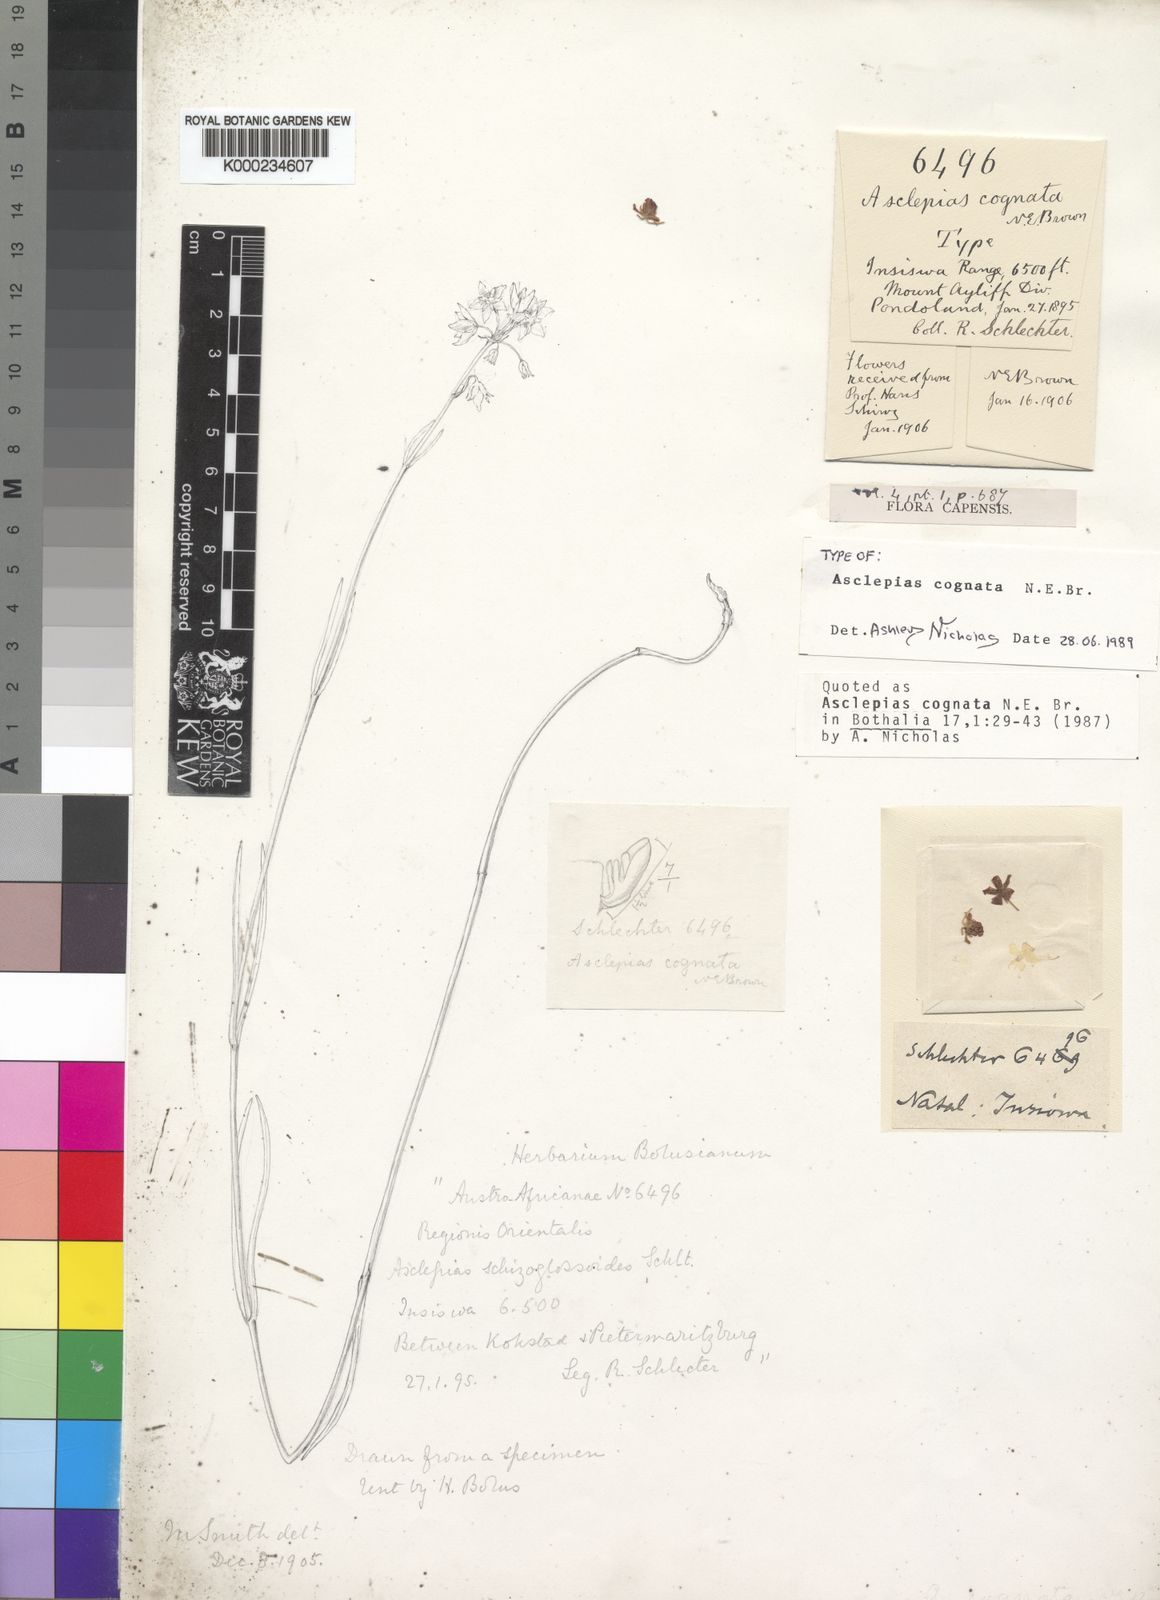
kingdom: Plantae
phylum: Tracheophyta
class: Magnoliopsida
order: Gentianales
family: Apocynaceae
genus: Aspidonepsis
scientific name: Aspidonepsis cognata
